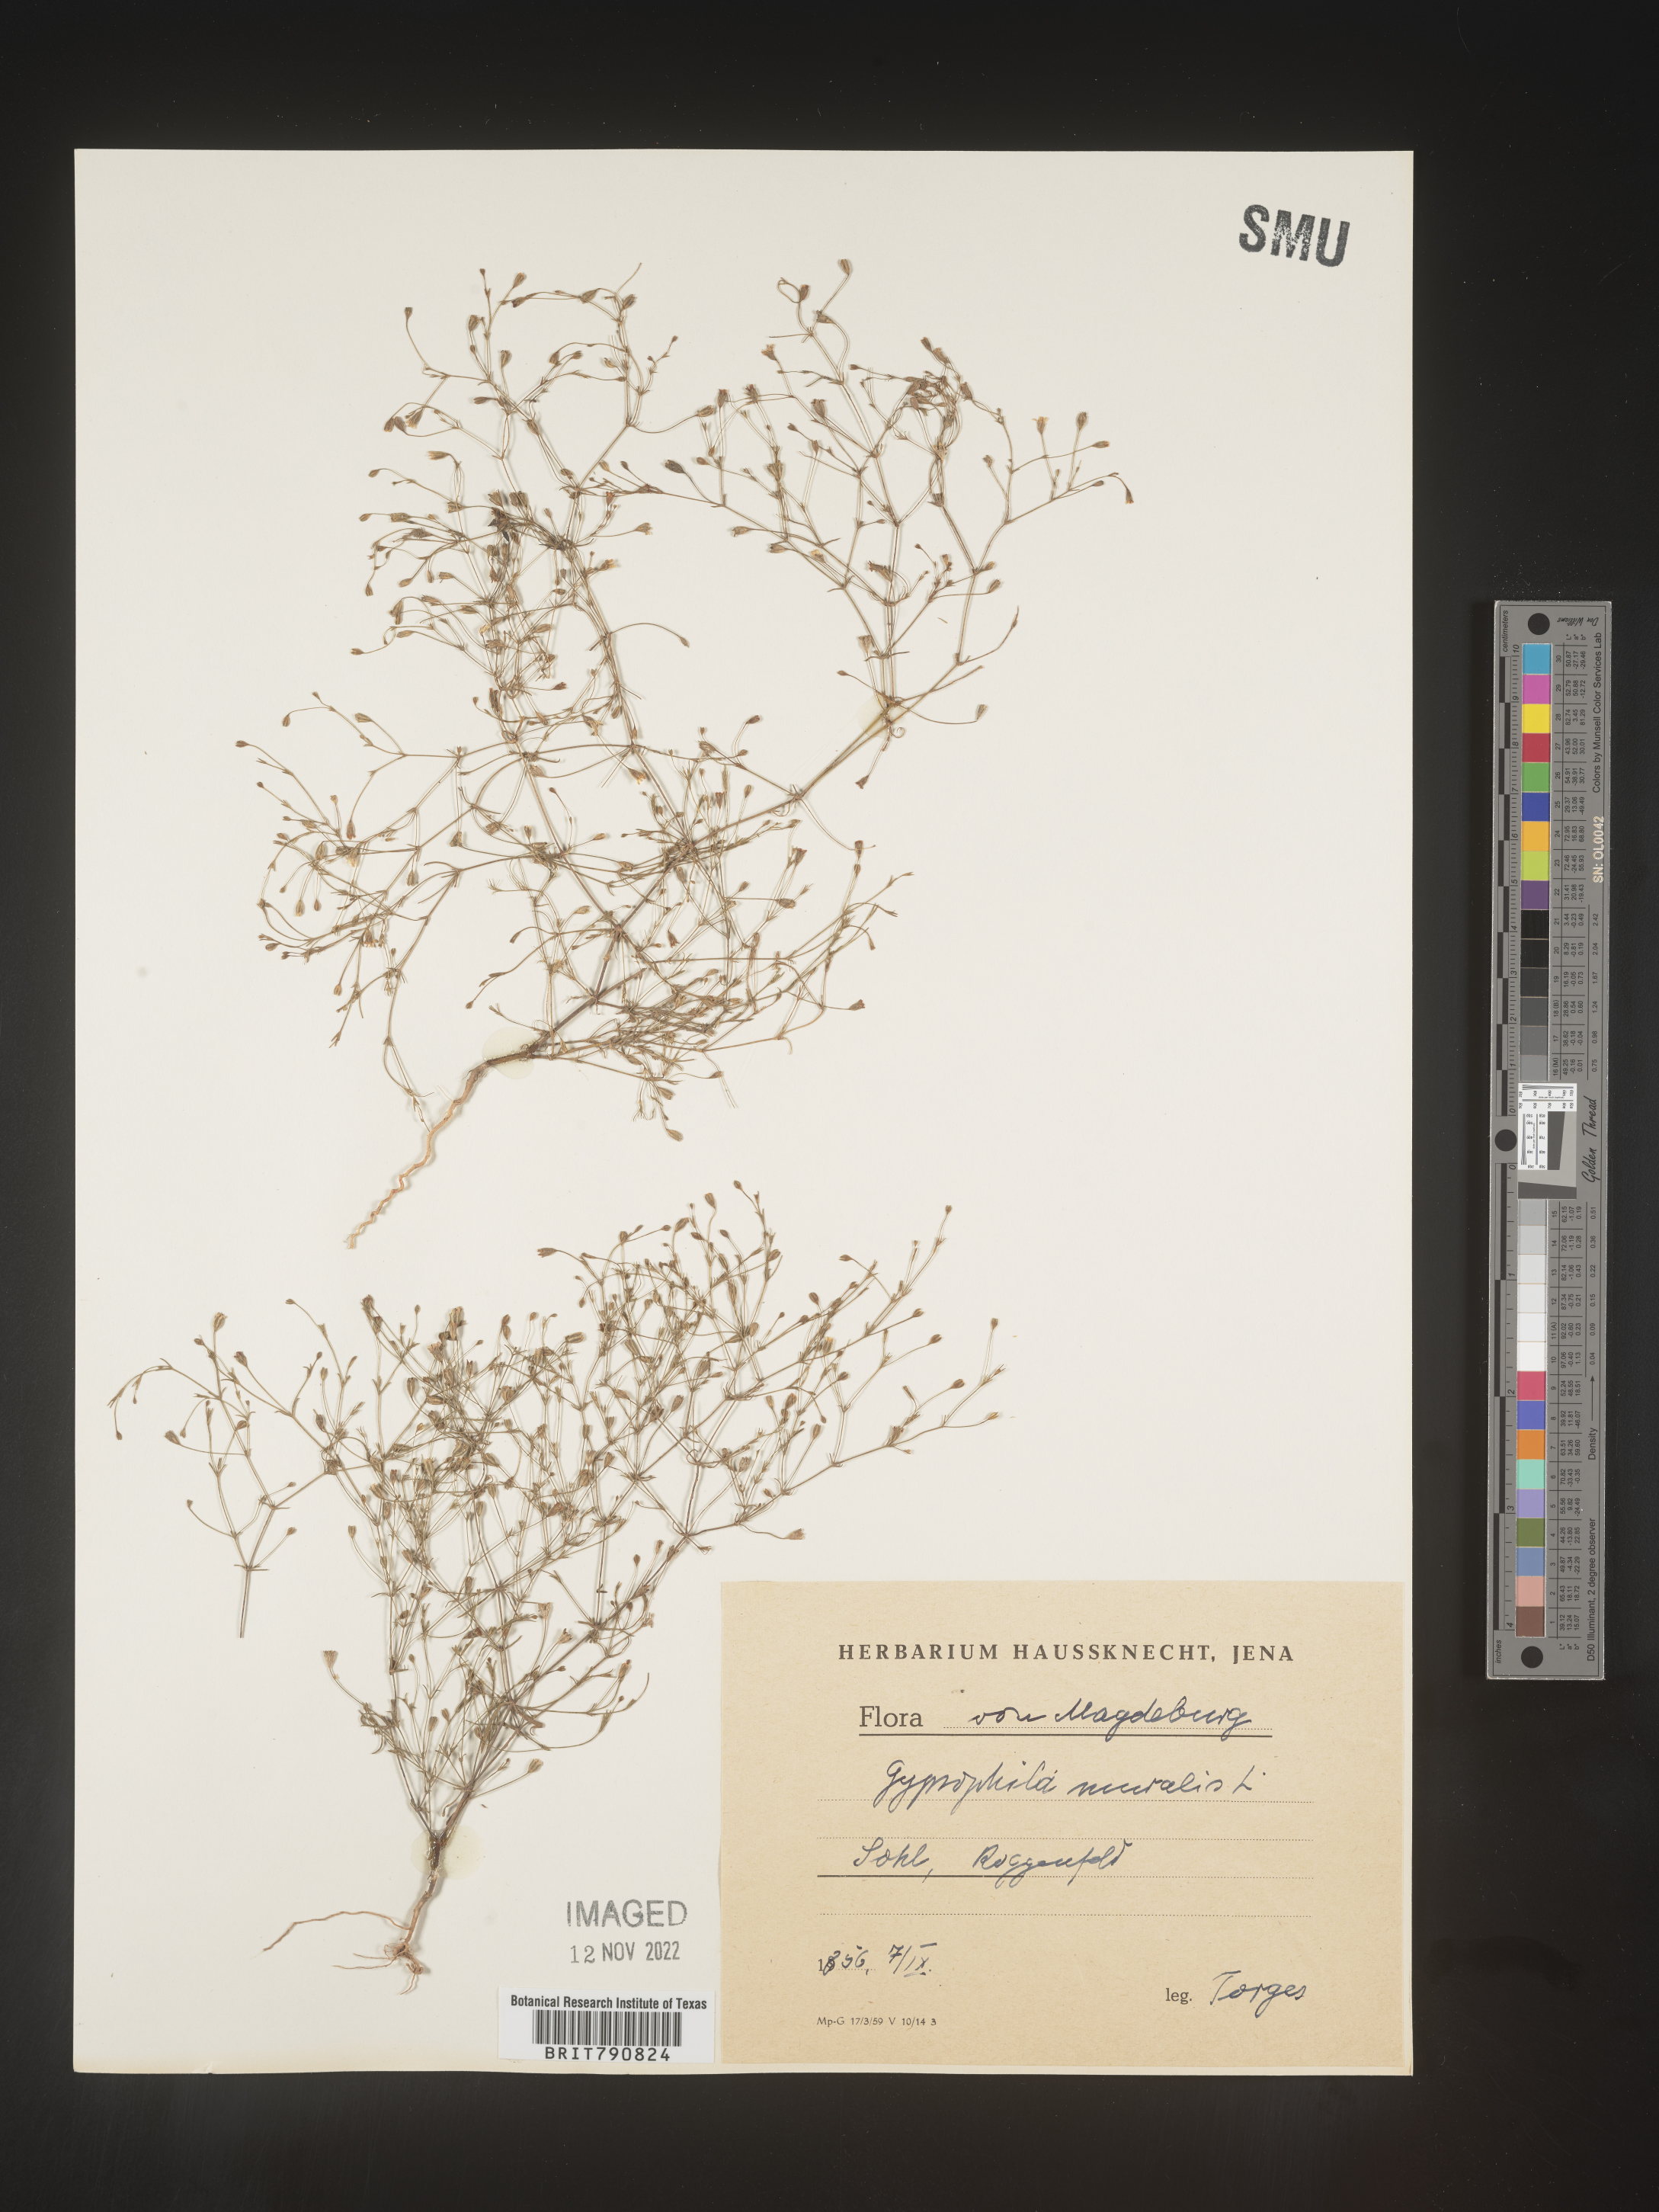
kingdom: Plantae
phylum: Tracheophyta
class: Magnoliopsida
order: Caryophyllales
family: Caryophyllaceae
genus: Gypsophila
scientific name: Gypsophila
